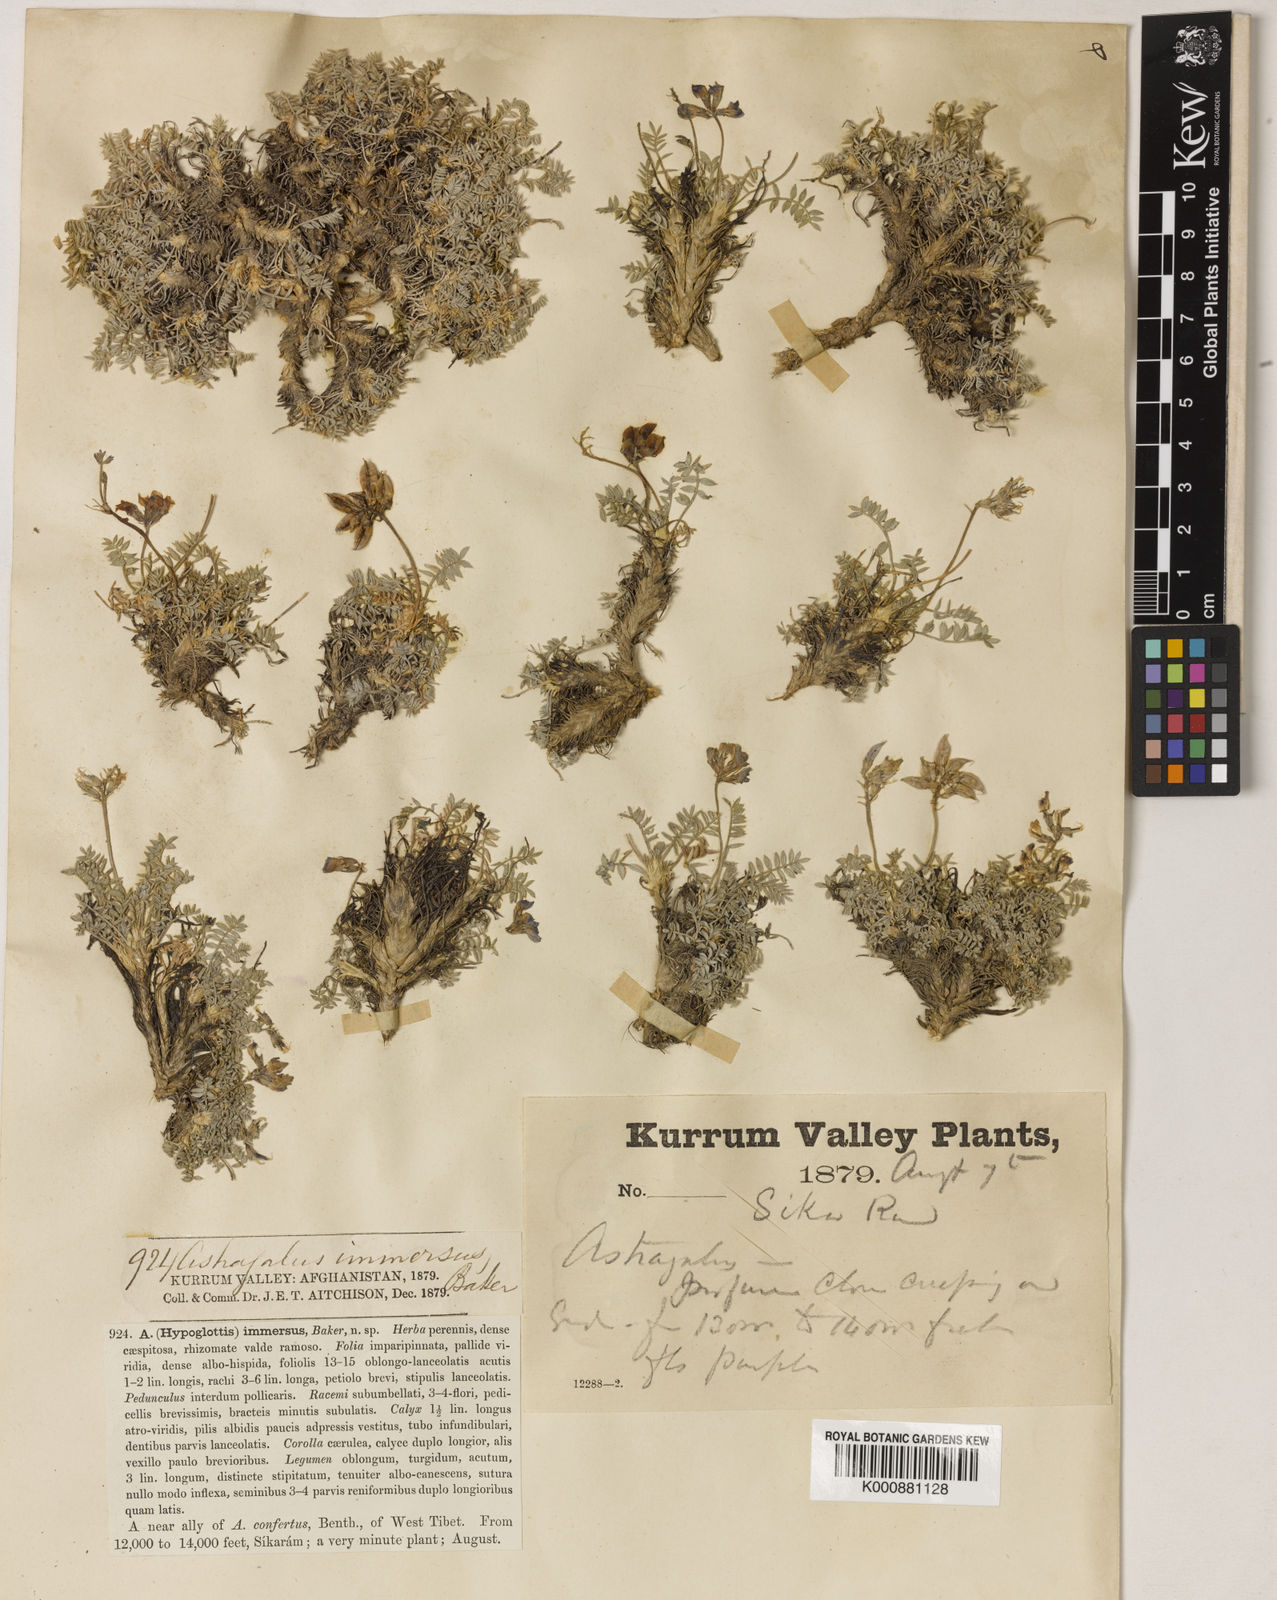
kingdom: Plantae
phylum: Tracheophyta
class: Magnoliopsida
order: Fabales
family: Fabaceae
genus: Oxytropis
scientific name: Oxytropis
